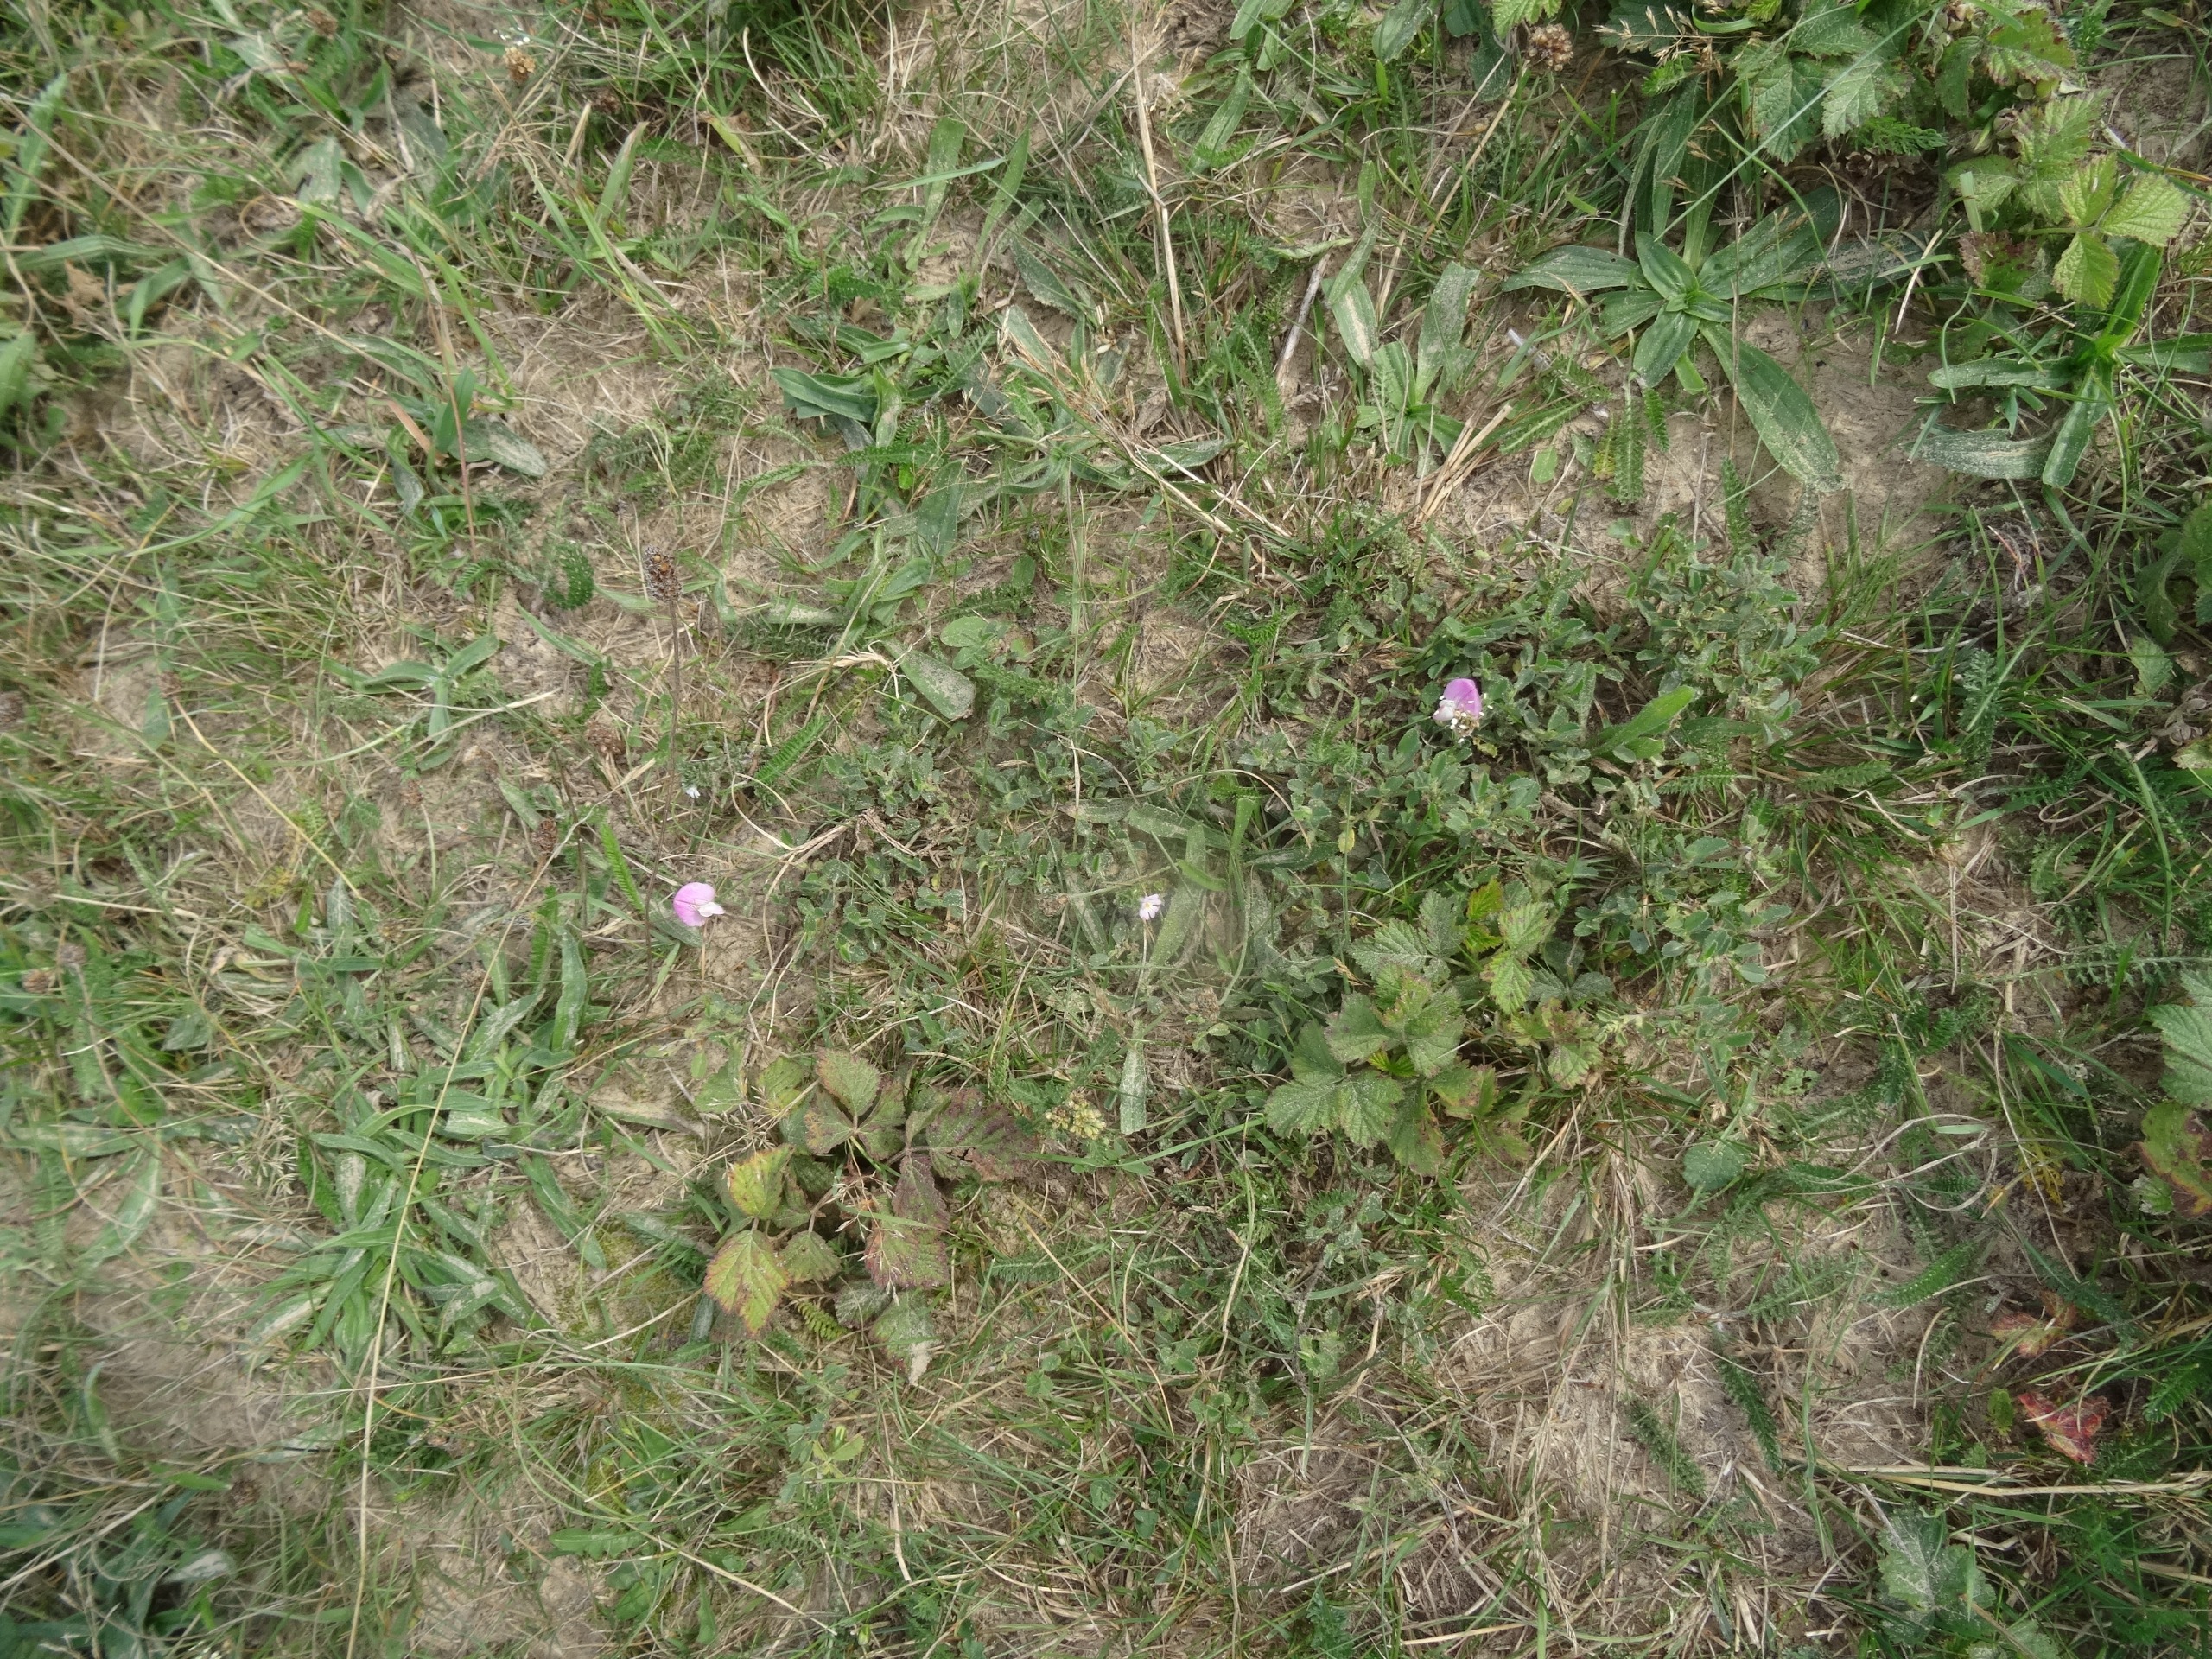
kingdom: Plantae
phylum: Tracheophyta
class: Magnoliopsida
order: Fabales
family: Fabaceae
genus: Ononis
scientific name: Ononis spinosa
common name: Mark-krageklo
